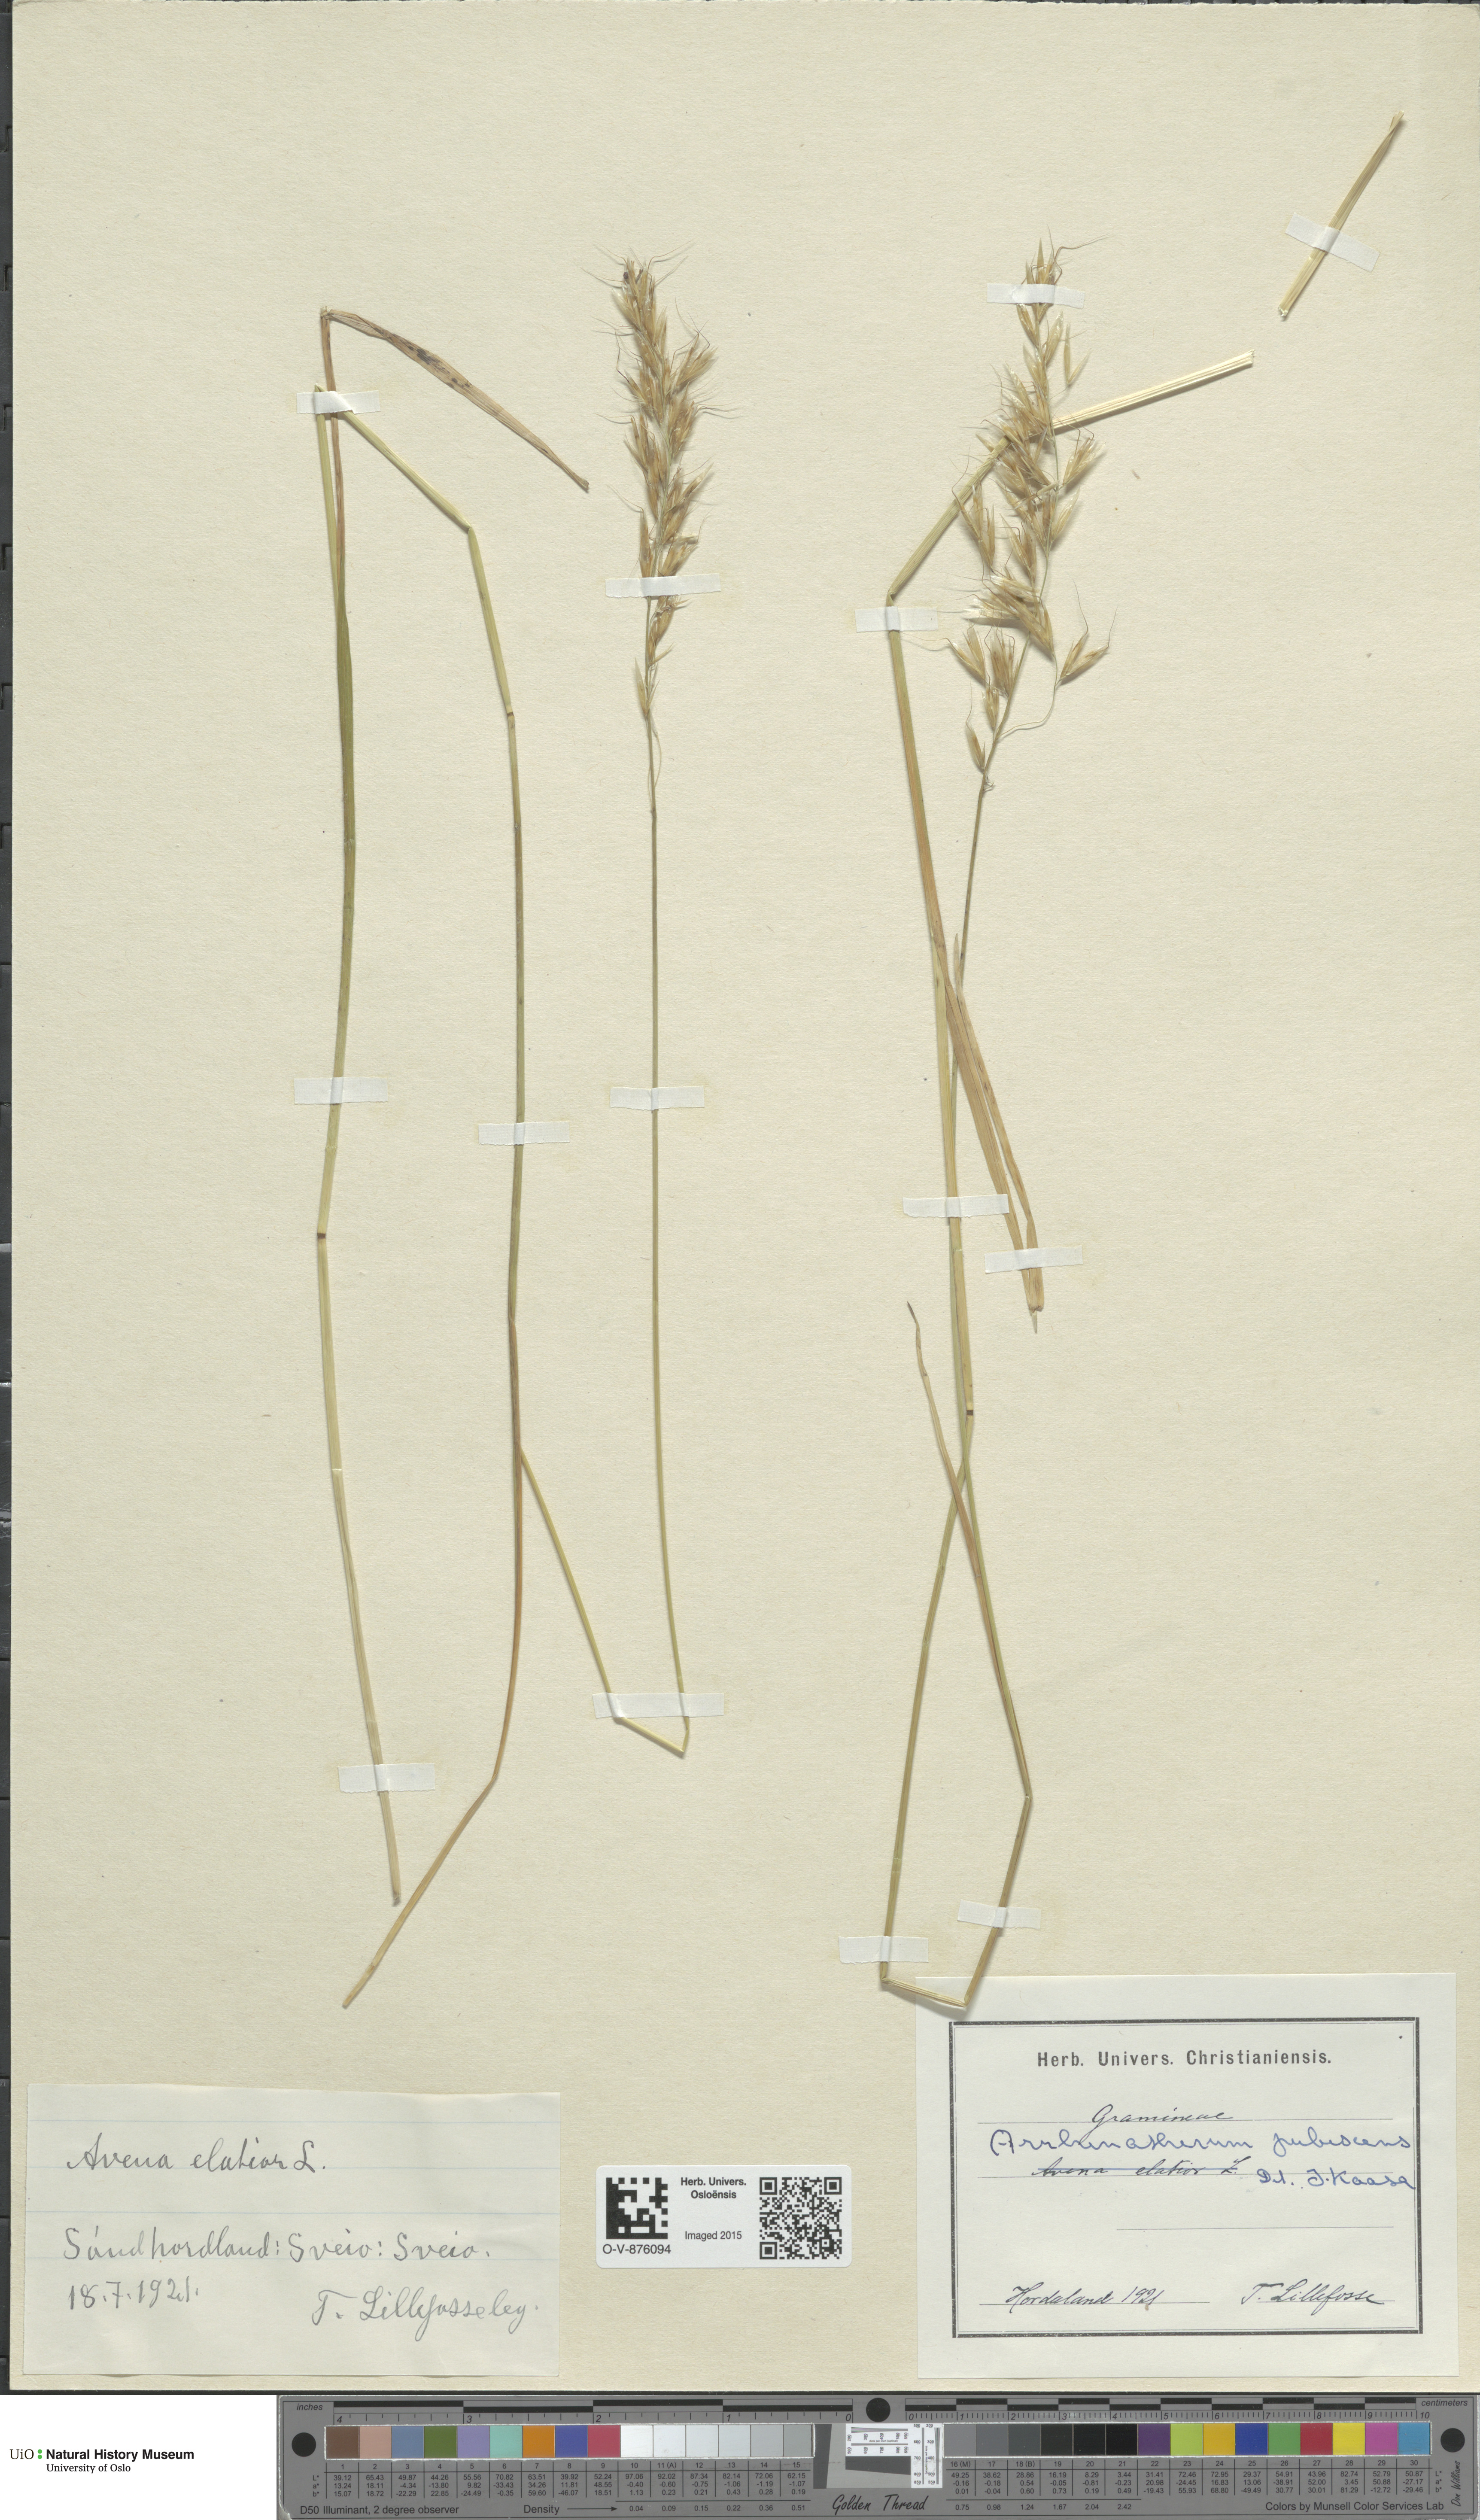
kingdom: Plantae
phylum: Tracheophyta
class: Liliopsida
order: Poales
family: Poaceae
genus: Avenula
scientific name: Avenula pubescens
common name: Downy alpine oatgrass
